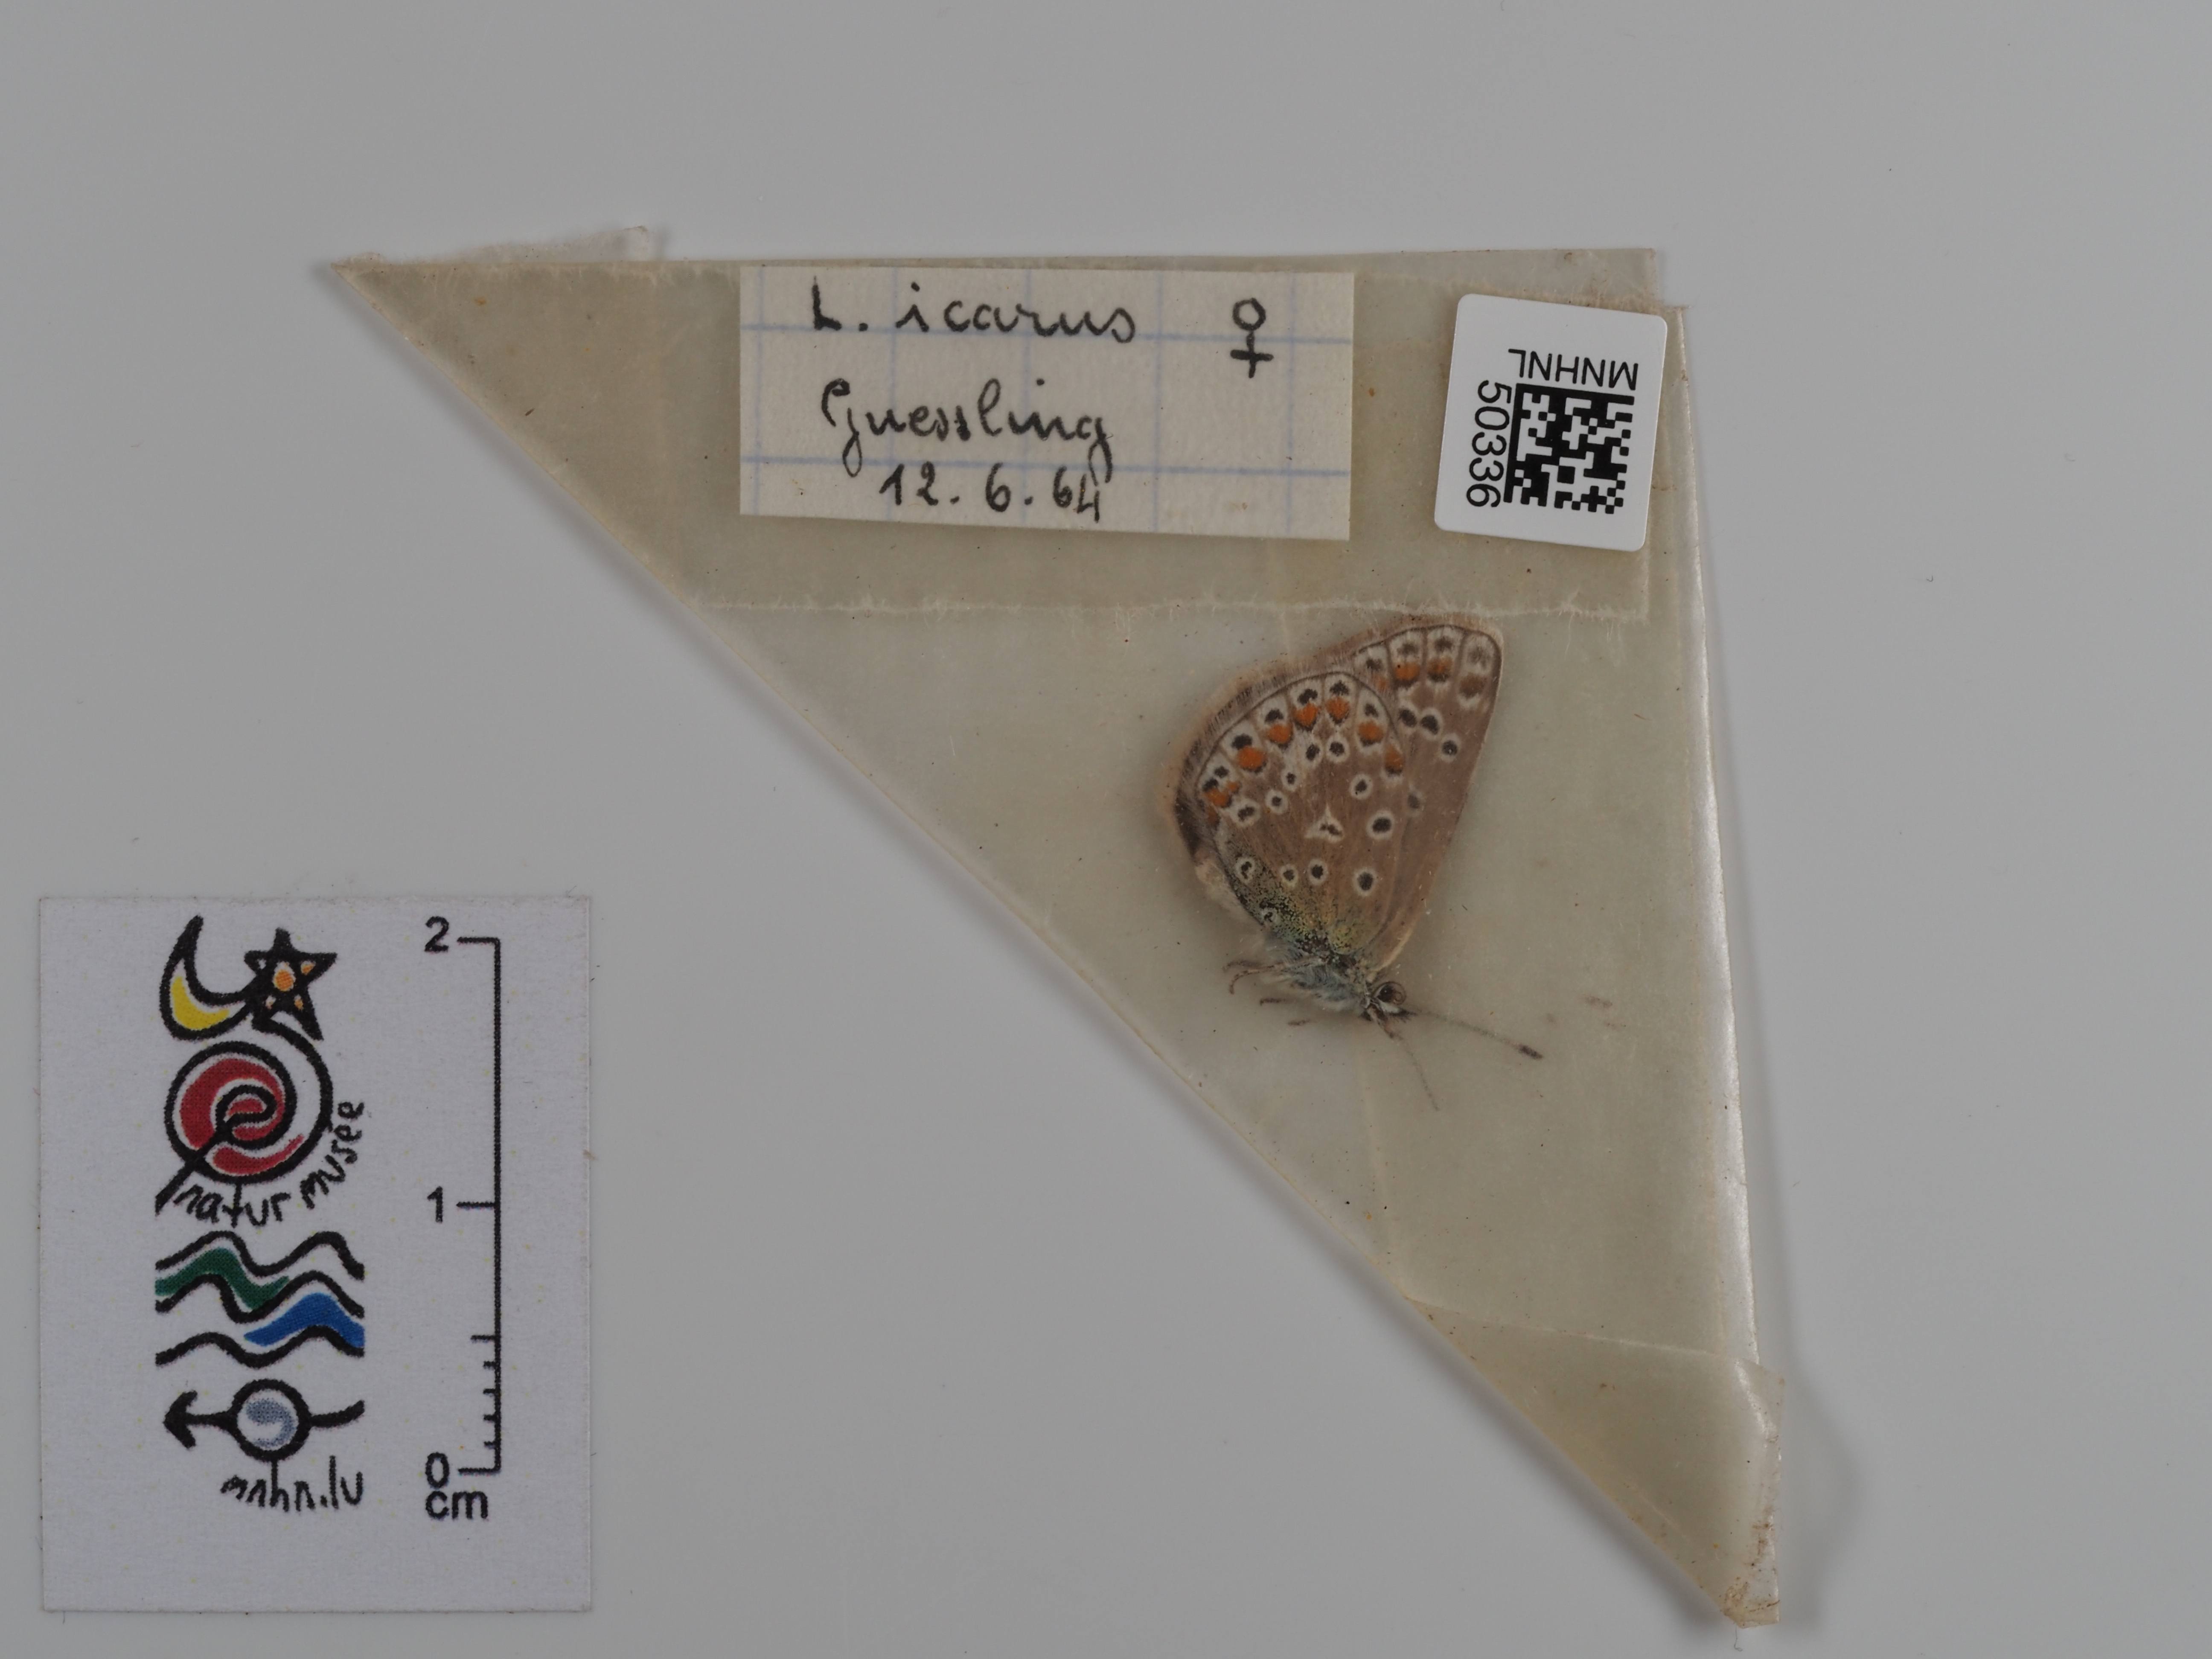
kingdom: Animalia
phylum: Arthropoda
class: Insecta
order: Lepidoptera
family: Lycaenidae
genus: Polyommatus
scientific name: Polyommatus icarus
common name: Common blue
